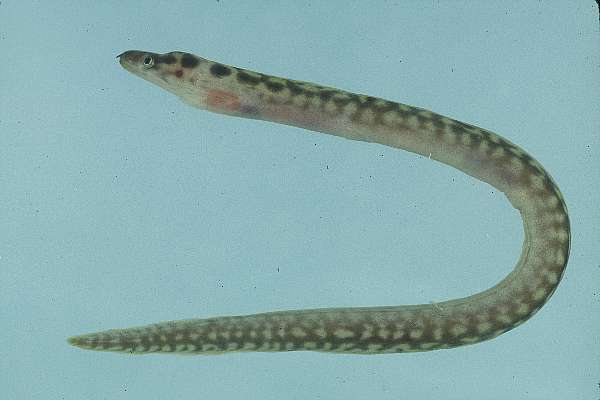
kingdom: Animalia
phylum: Chordata
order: Anguilliformes
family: Muraenidae
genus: Gymnothorax
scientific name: Gymnothorax margaritophorus
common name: Blotch-necked moray
